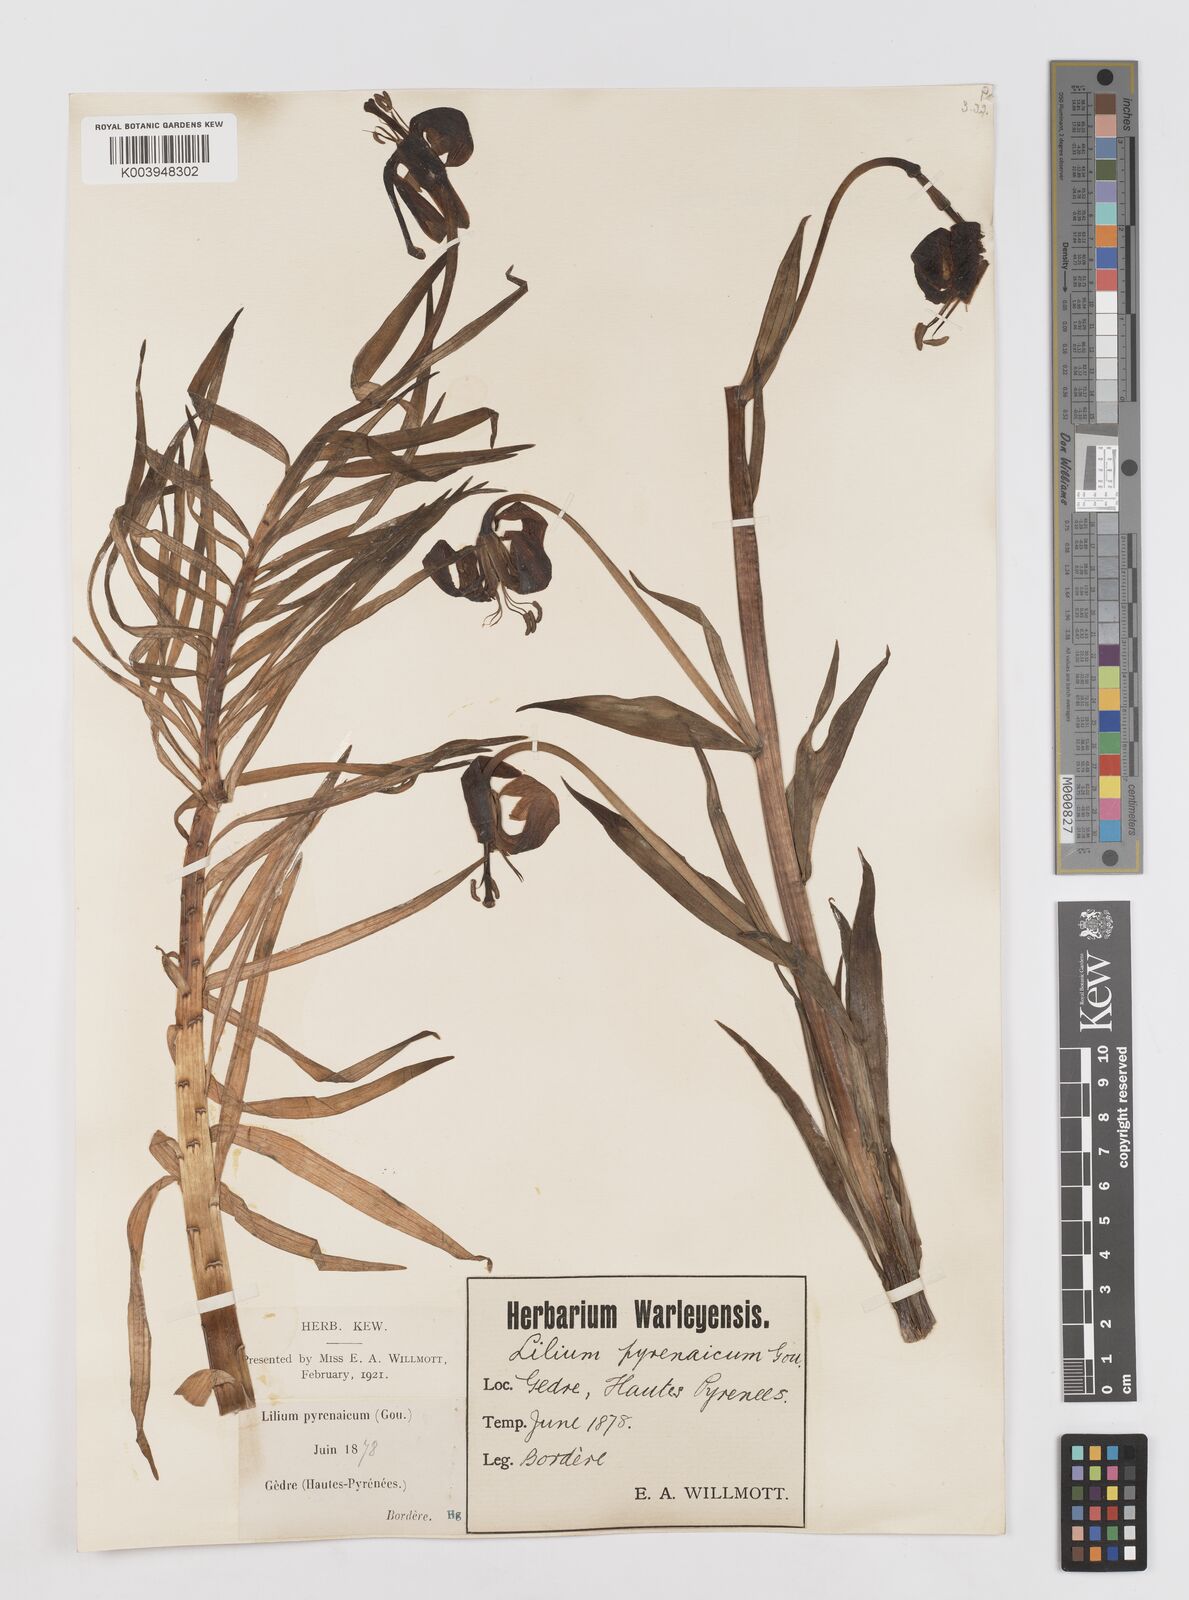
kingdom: Plantae
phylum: Tracheophyta
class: Liliopsida
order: Liliales
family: Liliaceae
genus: Lilium
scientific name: Lilium pyrenaicum
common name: Pyrenean lily
